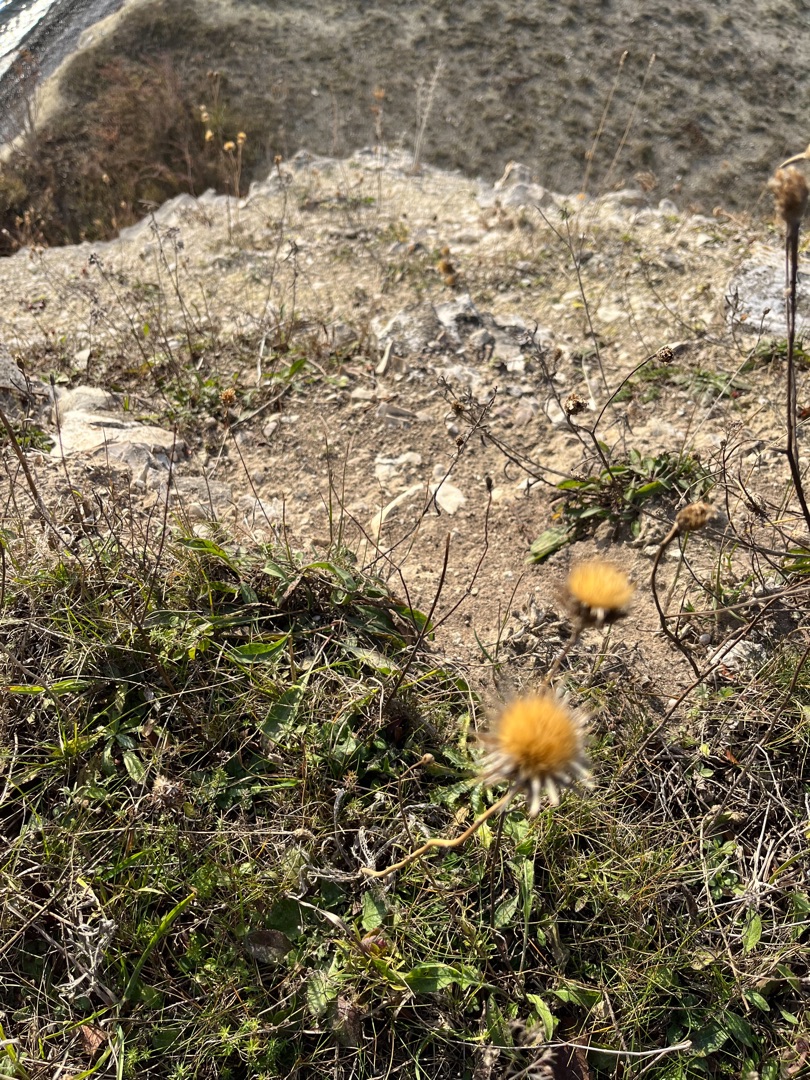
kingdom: Plantae
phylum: Tracheophyta
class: Magnoliopsida
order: Asterales
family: Asteraceae
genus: Carlina
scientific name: Carlina vulgaris
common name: Bakketidsel
